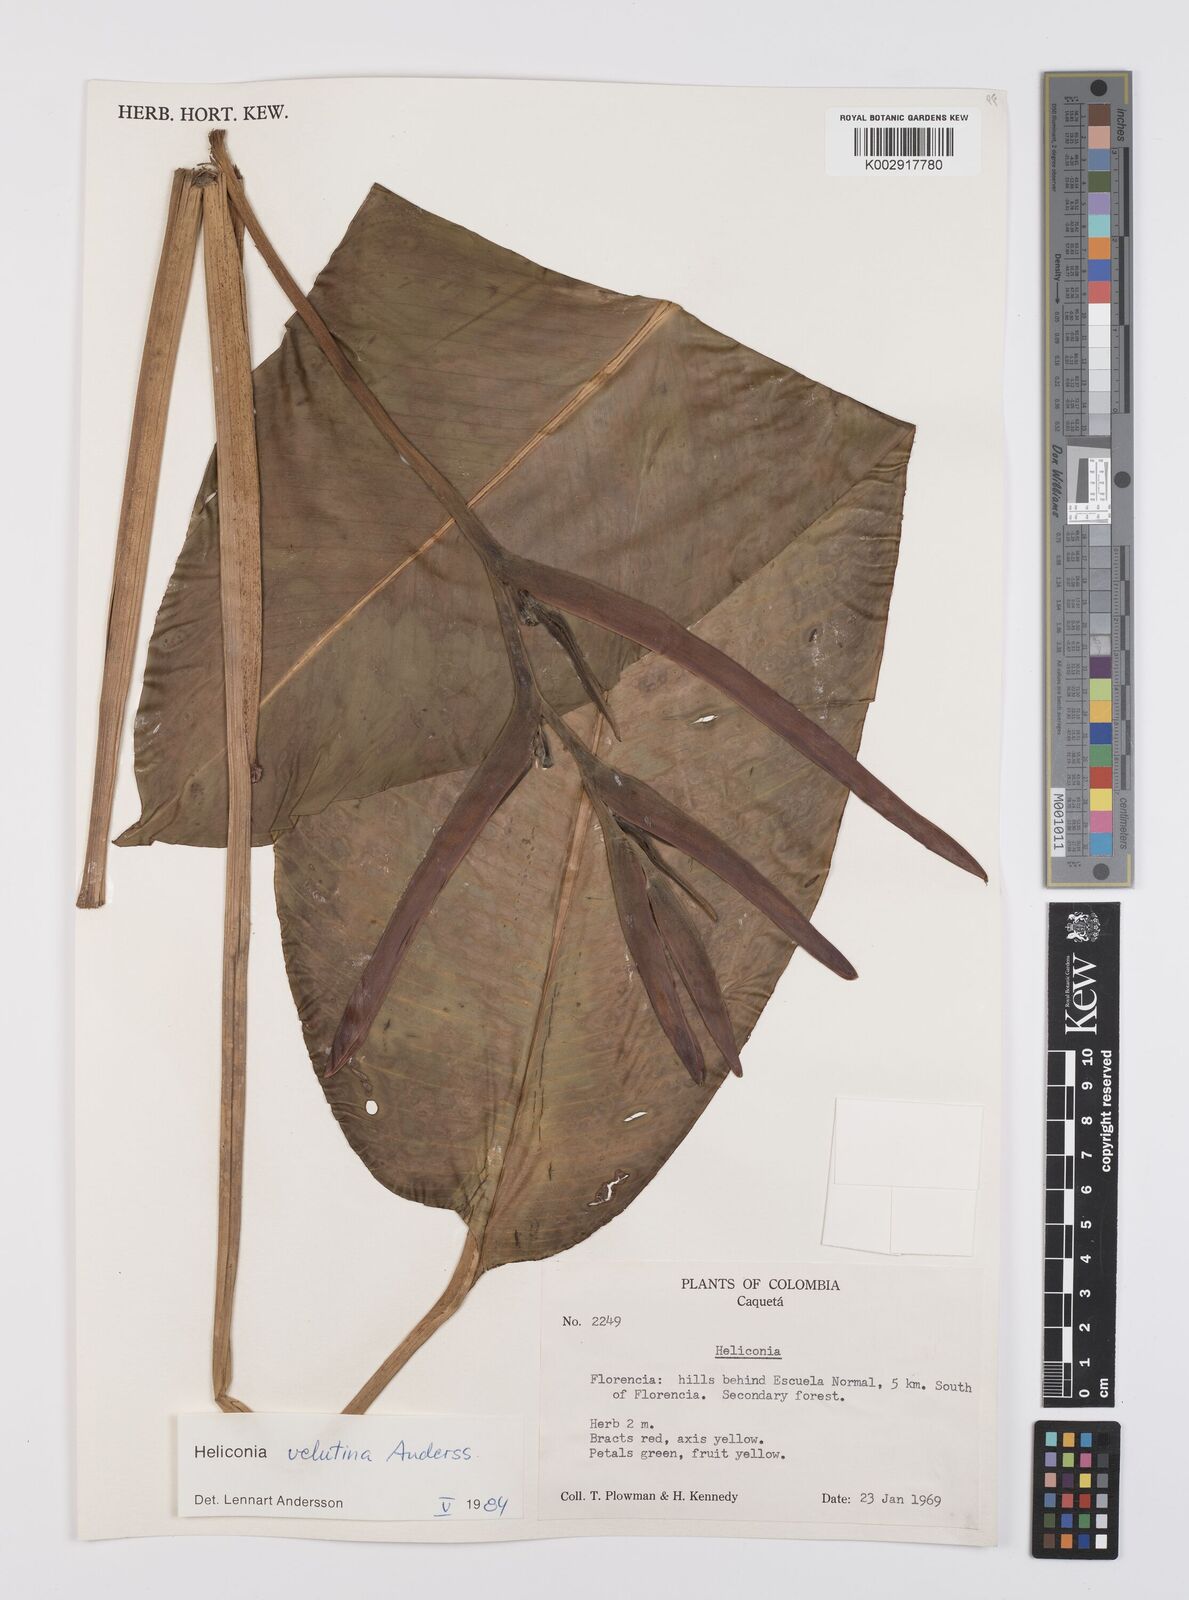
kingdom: Plantae
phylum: Tracheophyta
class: Liliopsida
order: Zingiberales
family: Heliconiaceae
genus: Heliconia
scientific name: Heliconia velutina
